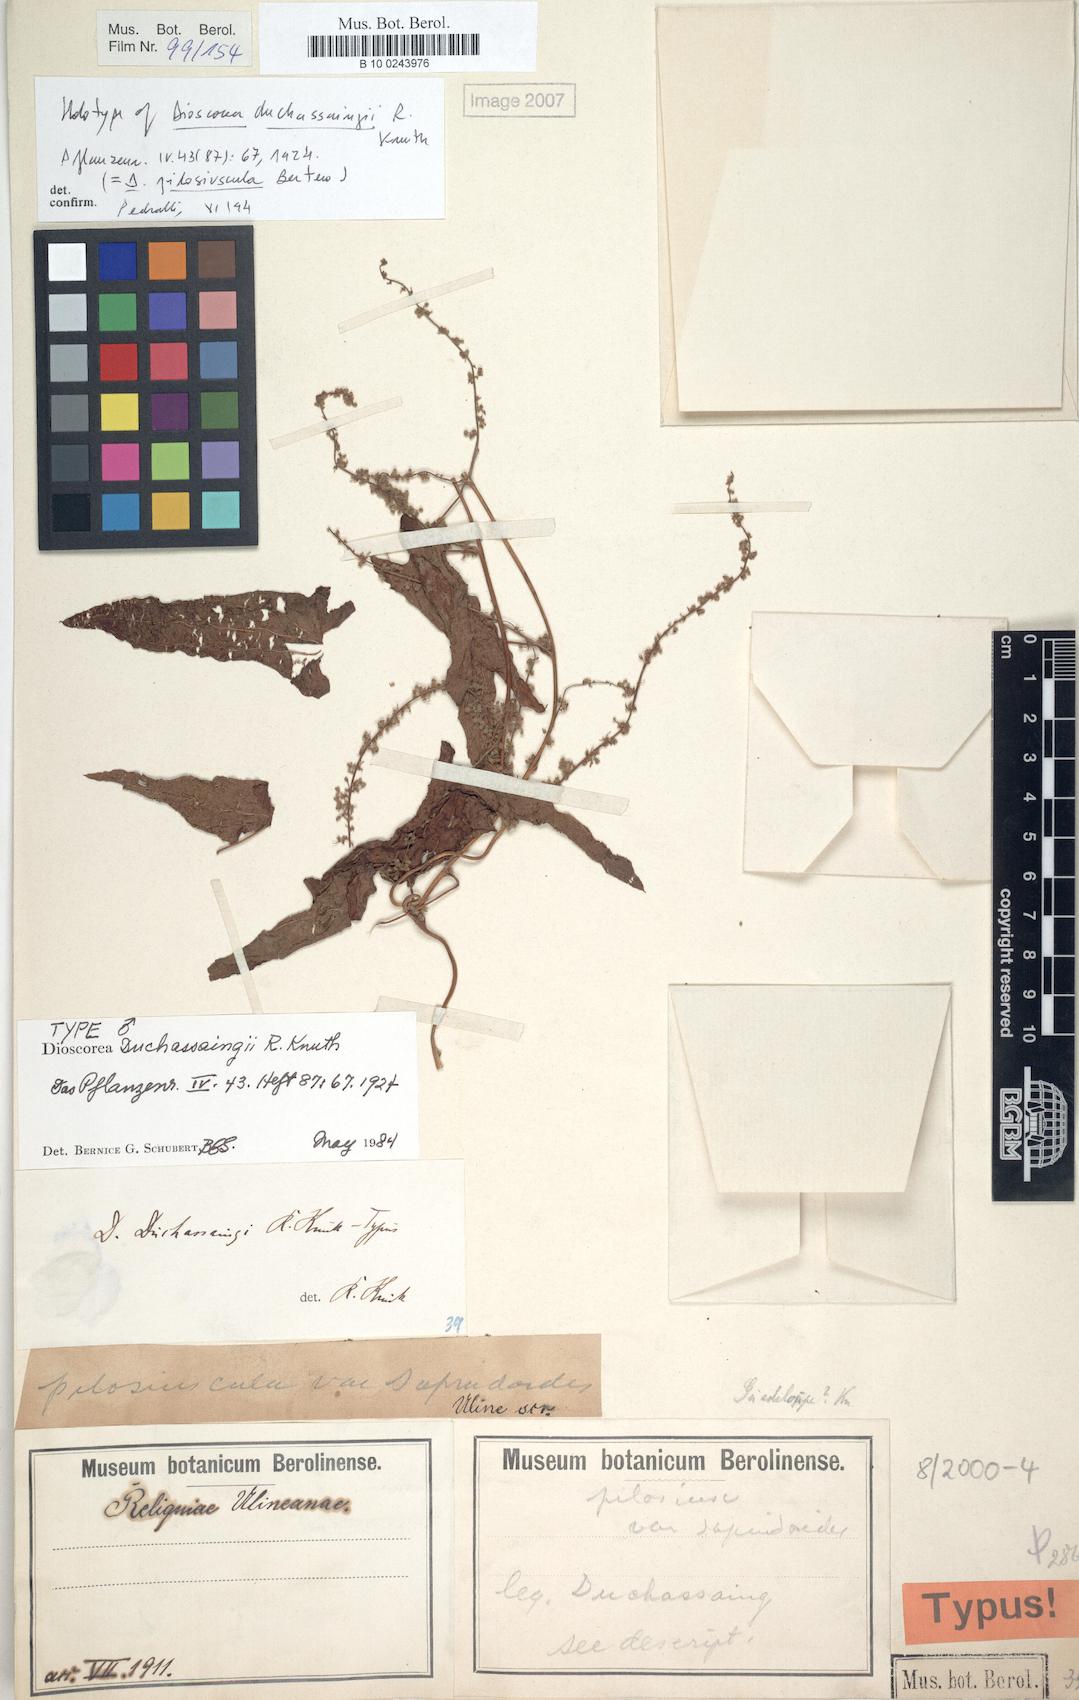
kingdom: Plantae
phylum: Tracheophyta
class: Liliopsida
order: Dioscoreales
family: Dioscoreaceae
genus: Dioscorea
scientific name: Dioscorea pilosiuscula
